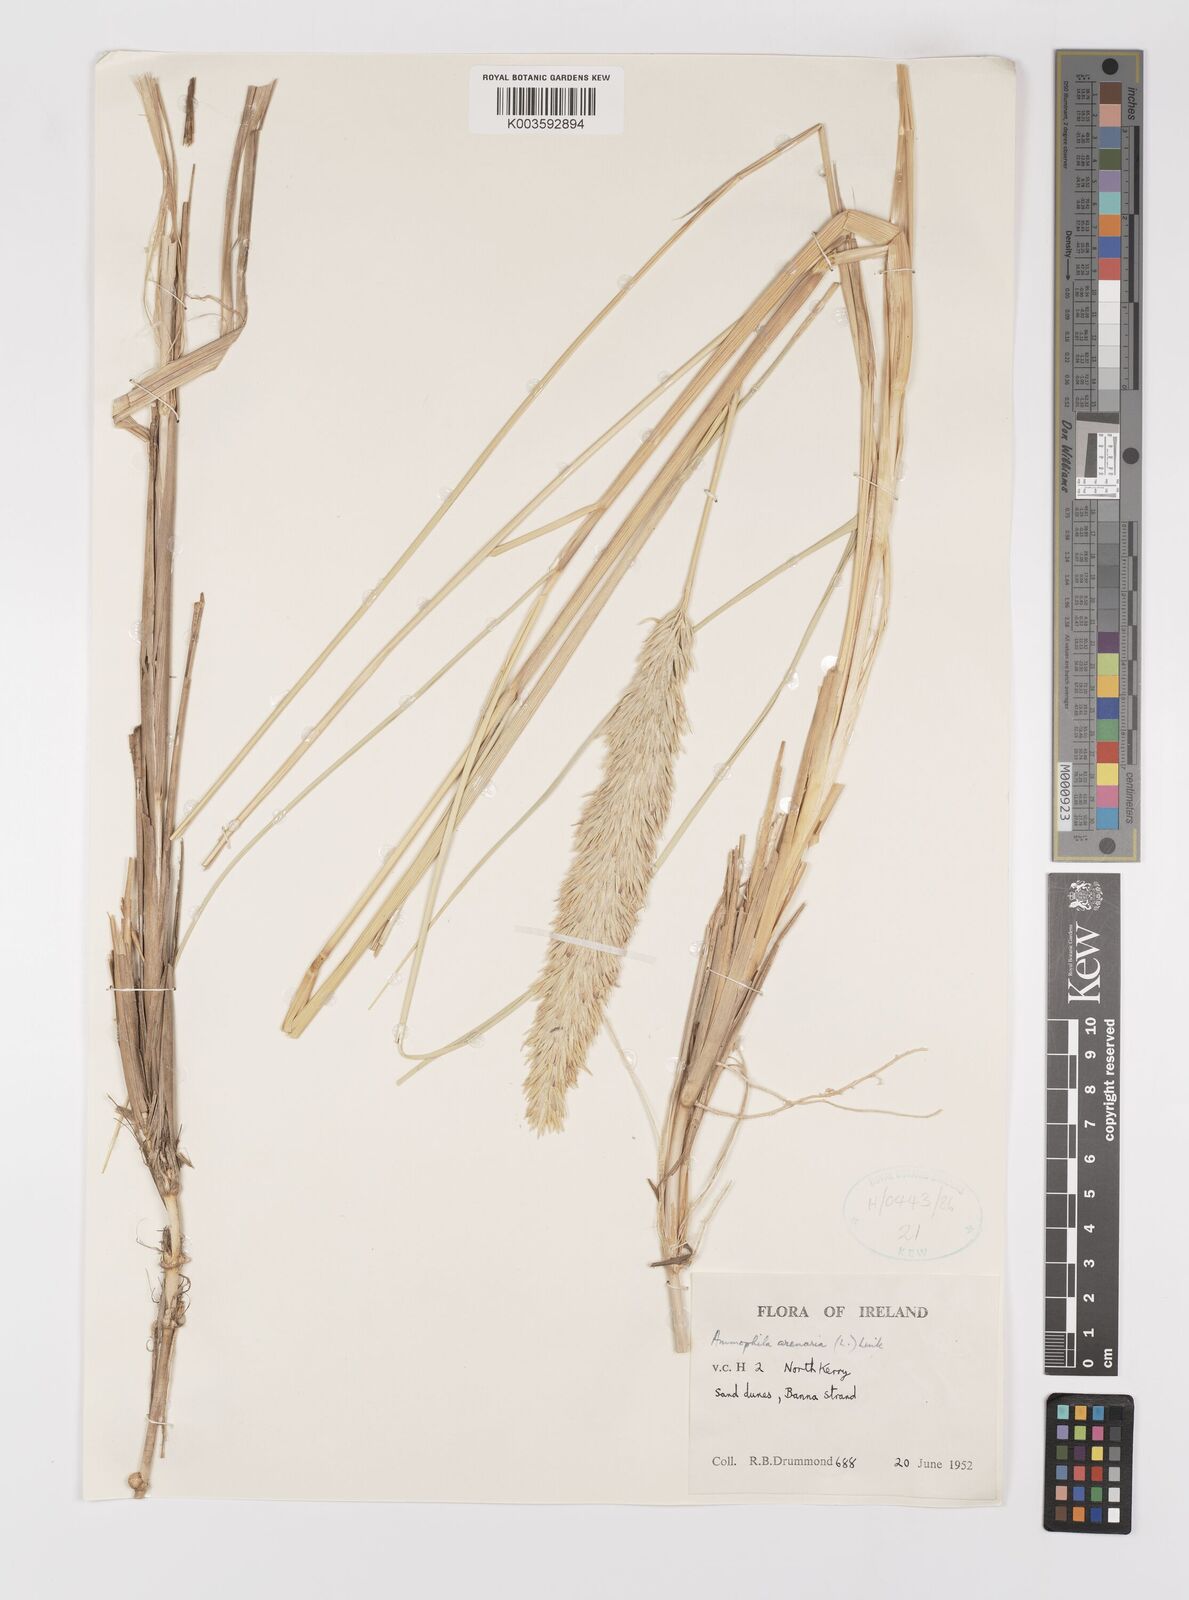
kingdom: Plantae
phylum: Tracheophyta
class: Liliopsida
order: Poales
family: Poaceae
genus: Calamagrostis
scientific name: Calamagrostis arenaria
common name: European beachgrass
